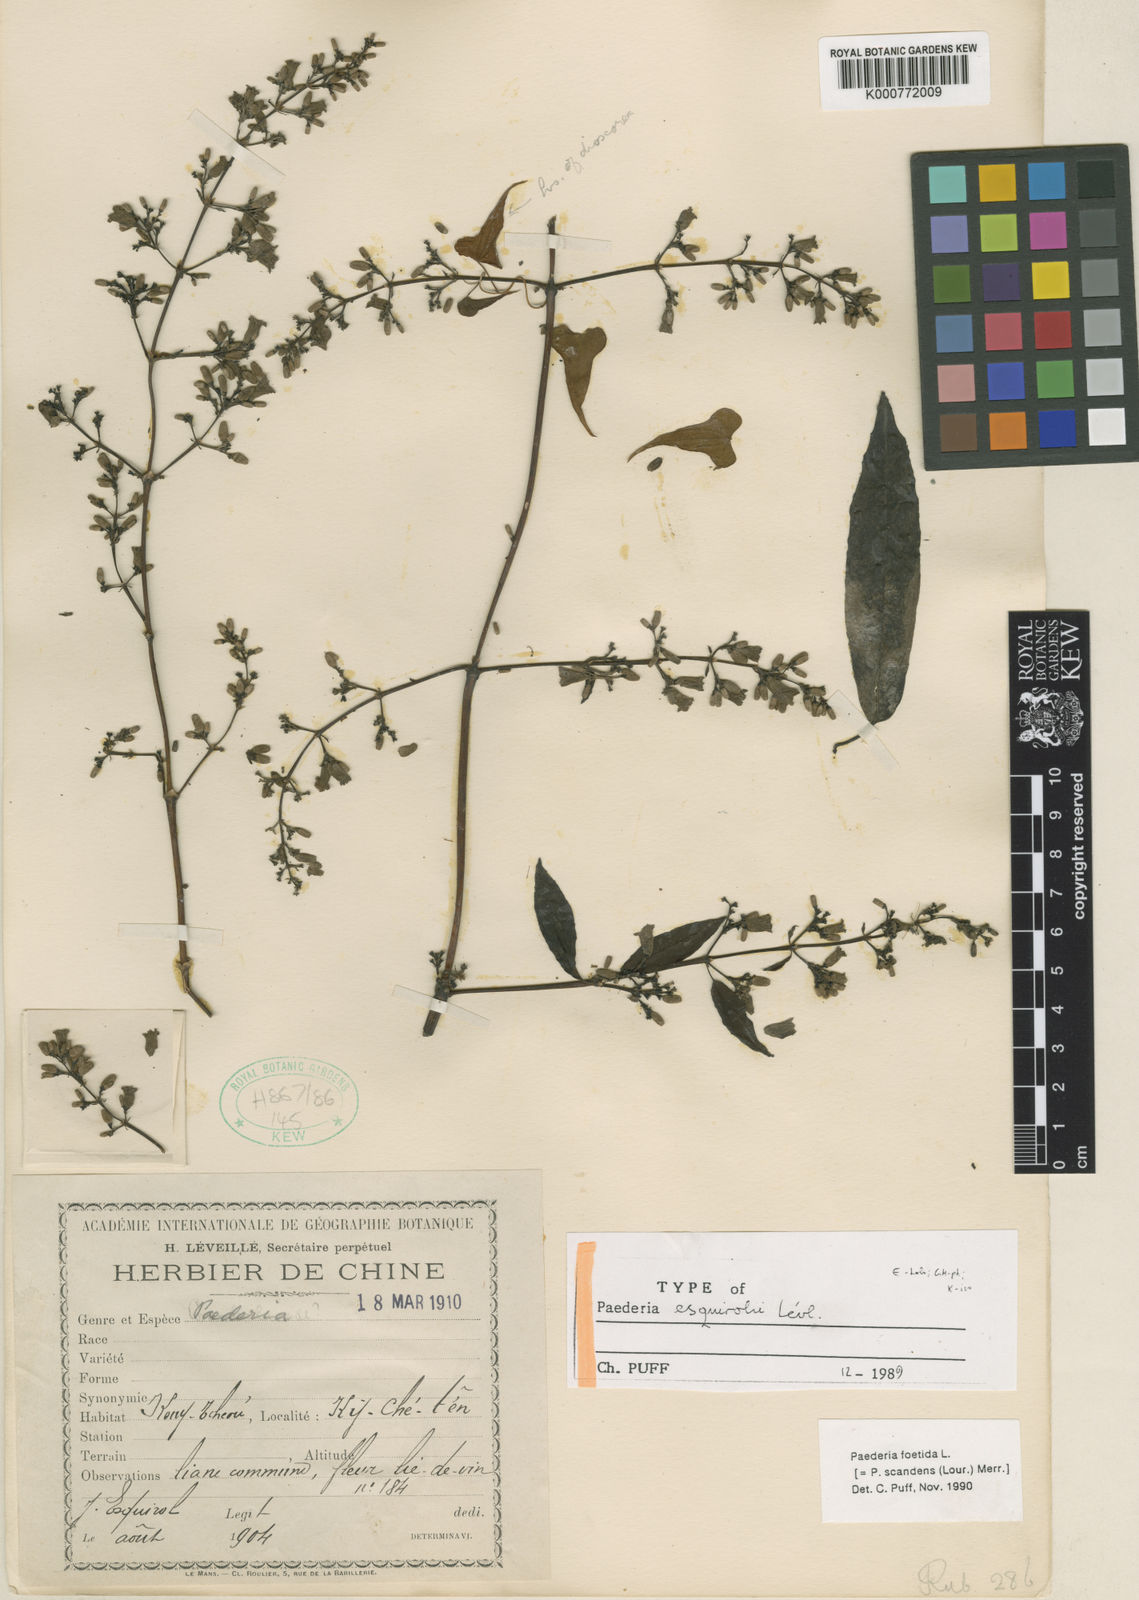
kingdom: Plantae
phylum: Tracheophyta
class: Magnoliopsida
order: Gentianales
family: Rubiaceae
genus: Paederia
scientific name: Paederia foetida
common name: Stinkvine
